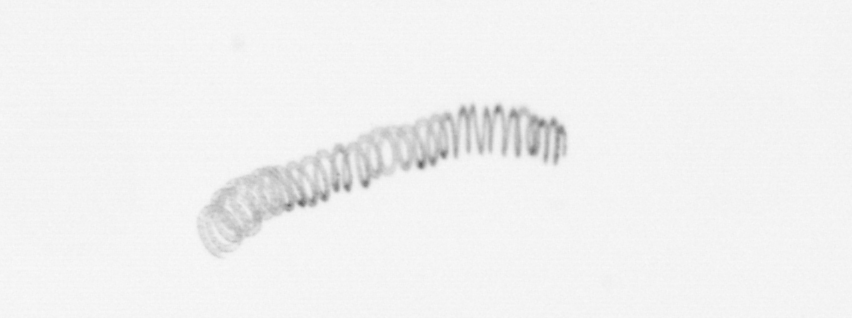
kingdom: Chromista
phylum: Ochrophyta
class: Bacillariophyceae
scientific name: Bacillariophyceae
